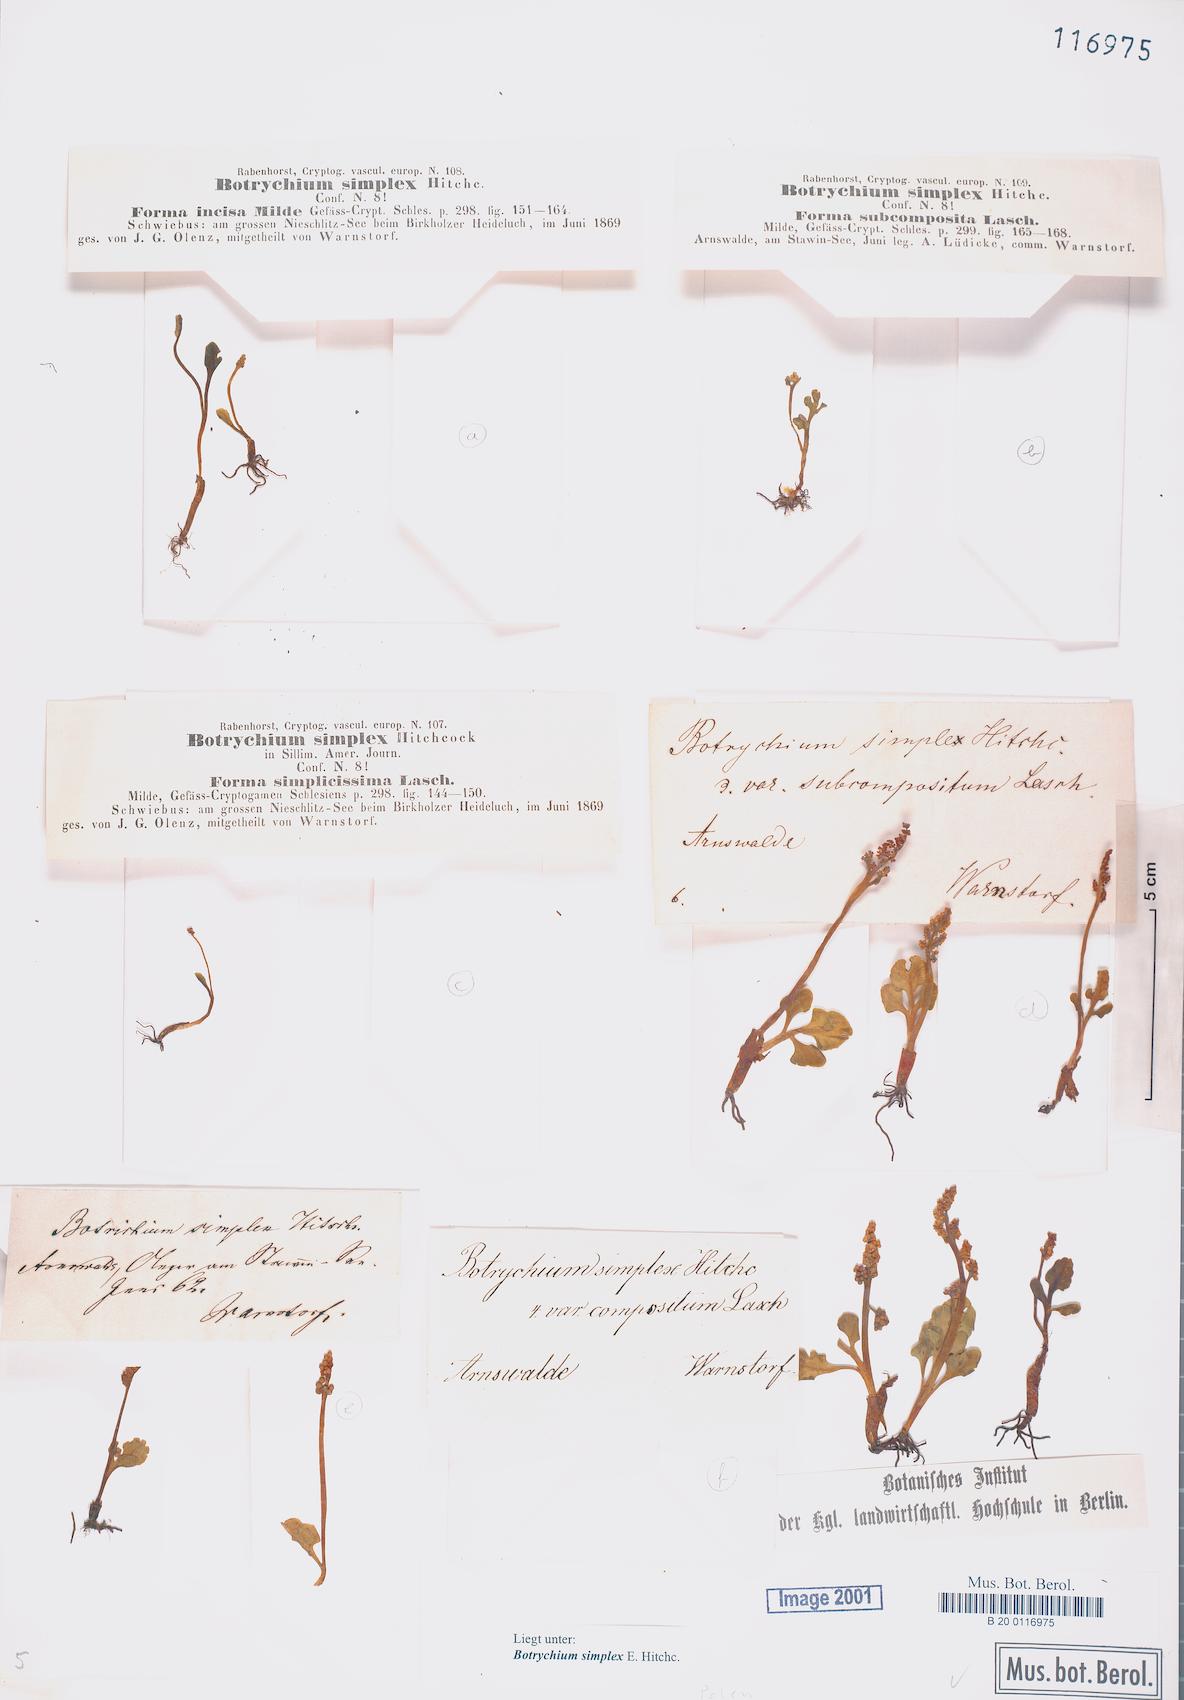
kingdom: Plantae
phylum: Tracheophyta
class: Polypodiopsida
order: Ophioglossales
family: Ophioglossaceae
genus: Botrychium
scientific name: Botrychium simplex
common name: Least moonwort
